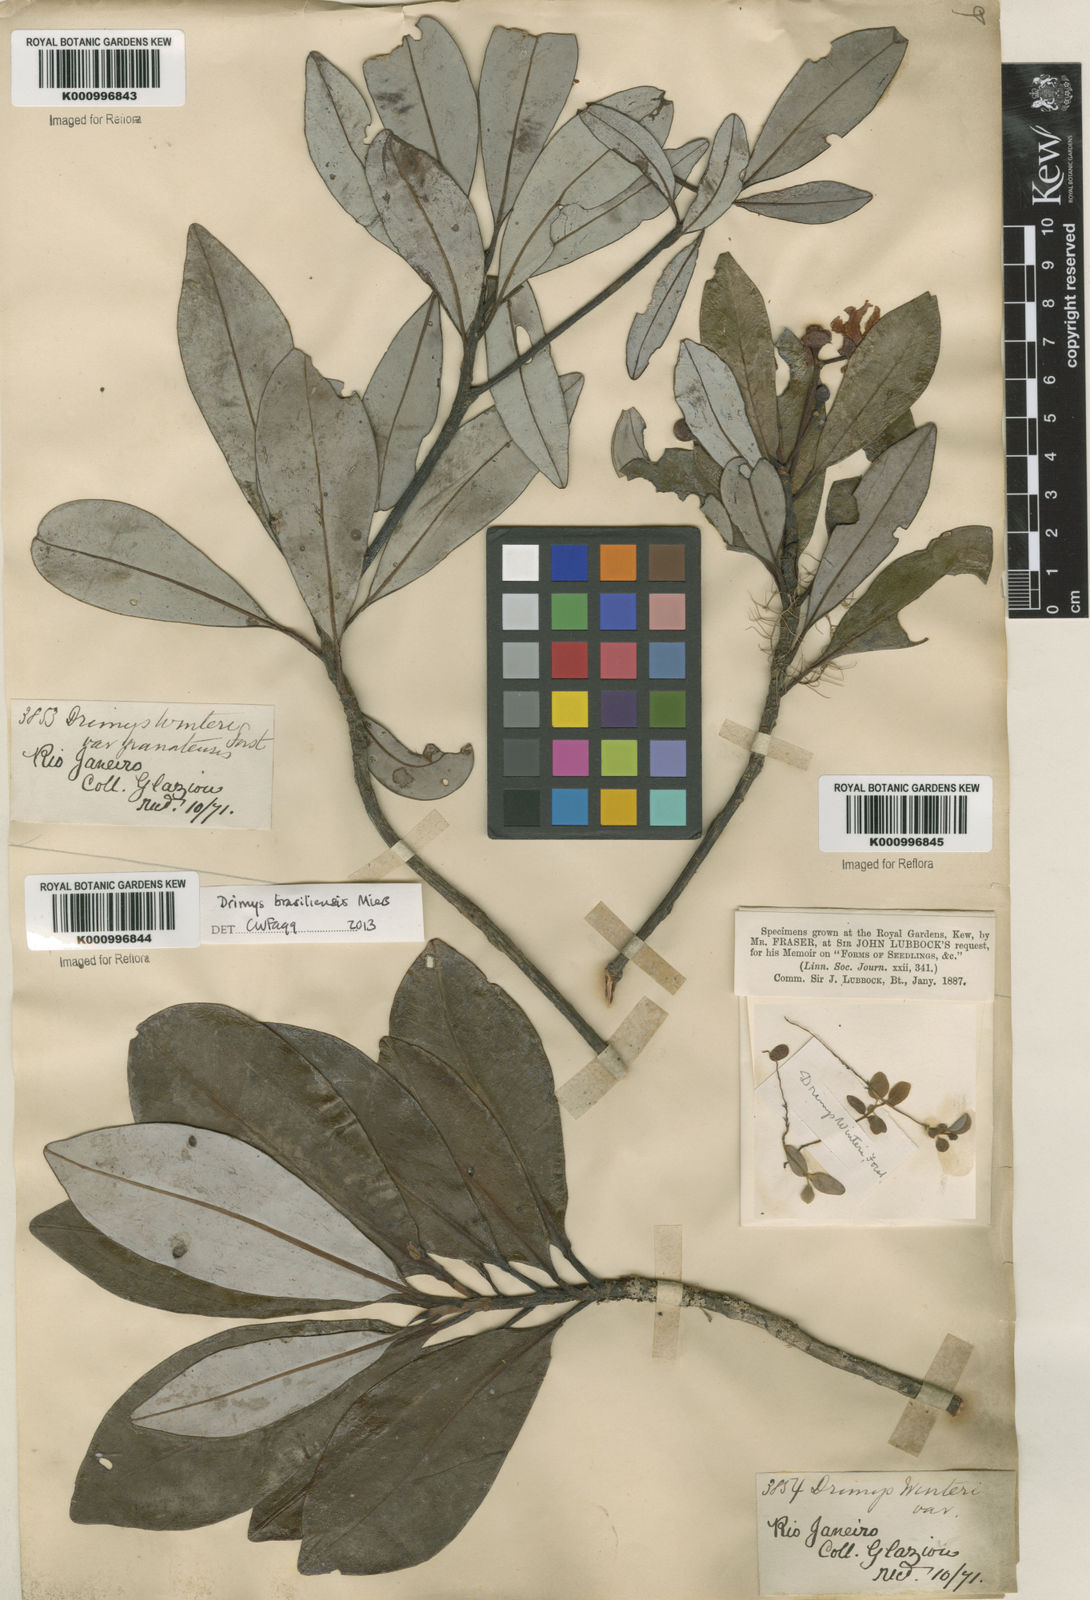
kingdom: Plantae
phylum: Tracheophyta
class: Magnoliopsida
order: Canellales
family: Winteraceae
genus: Drimys
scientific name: Drimys brasiliensis
